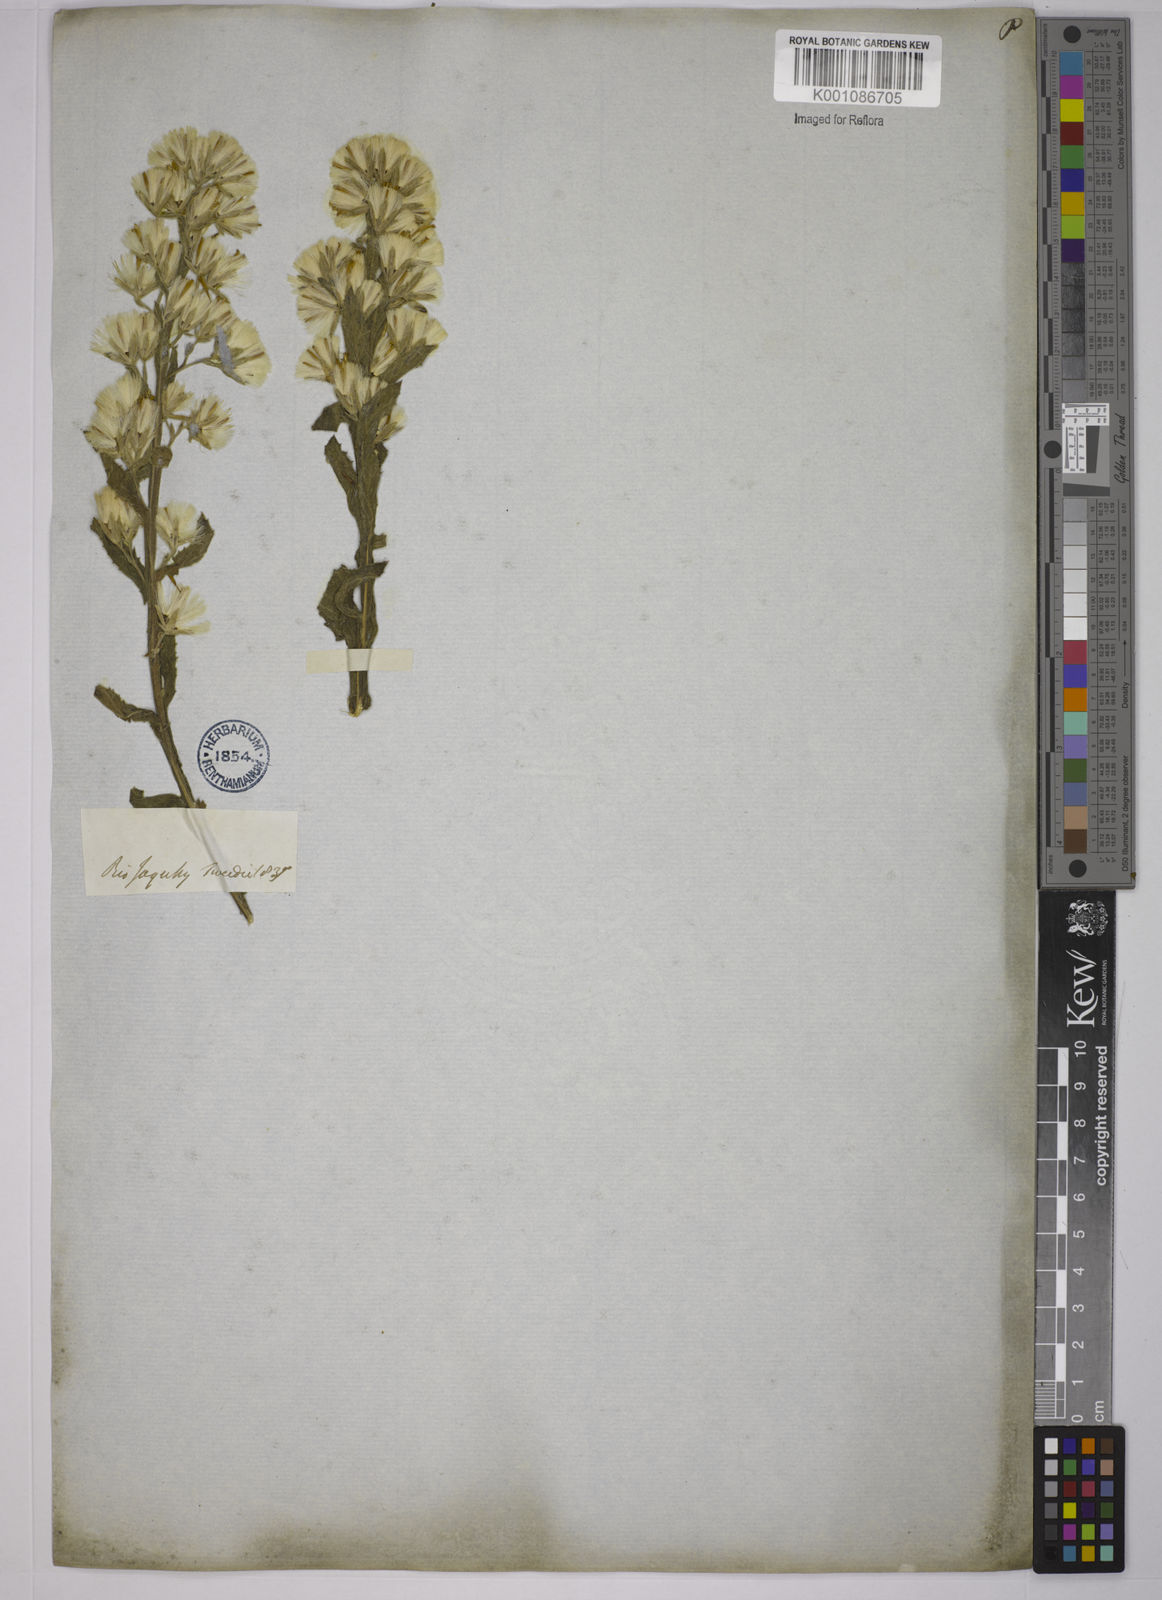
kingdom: Plantae
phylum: Tracheophyta
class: Magnoliopsida
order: Asterales
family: Asteraceae
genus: Trixis
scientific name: Trixis pallida
